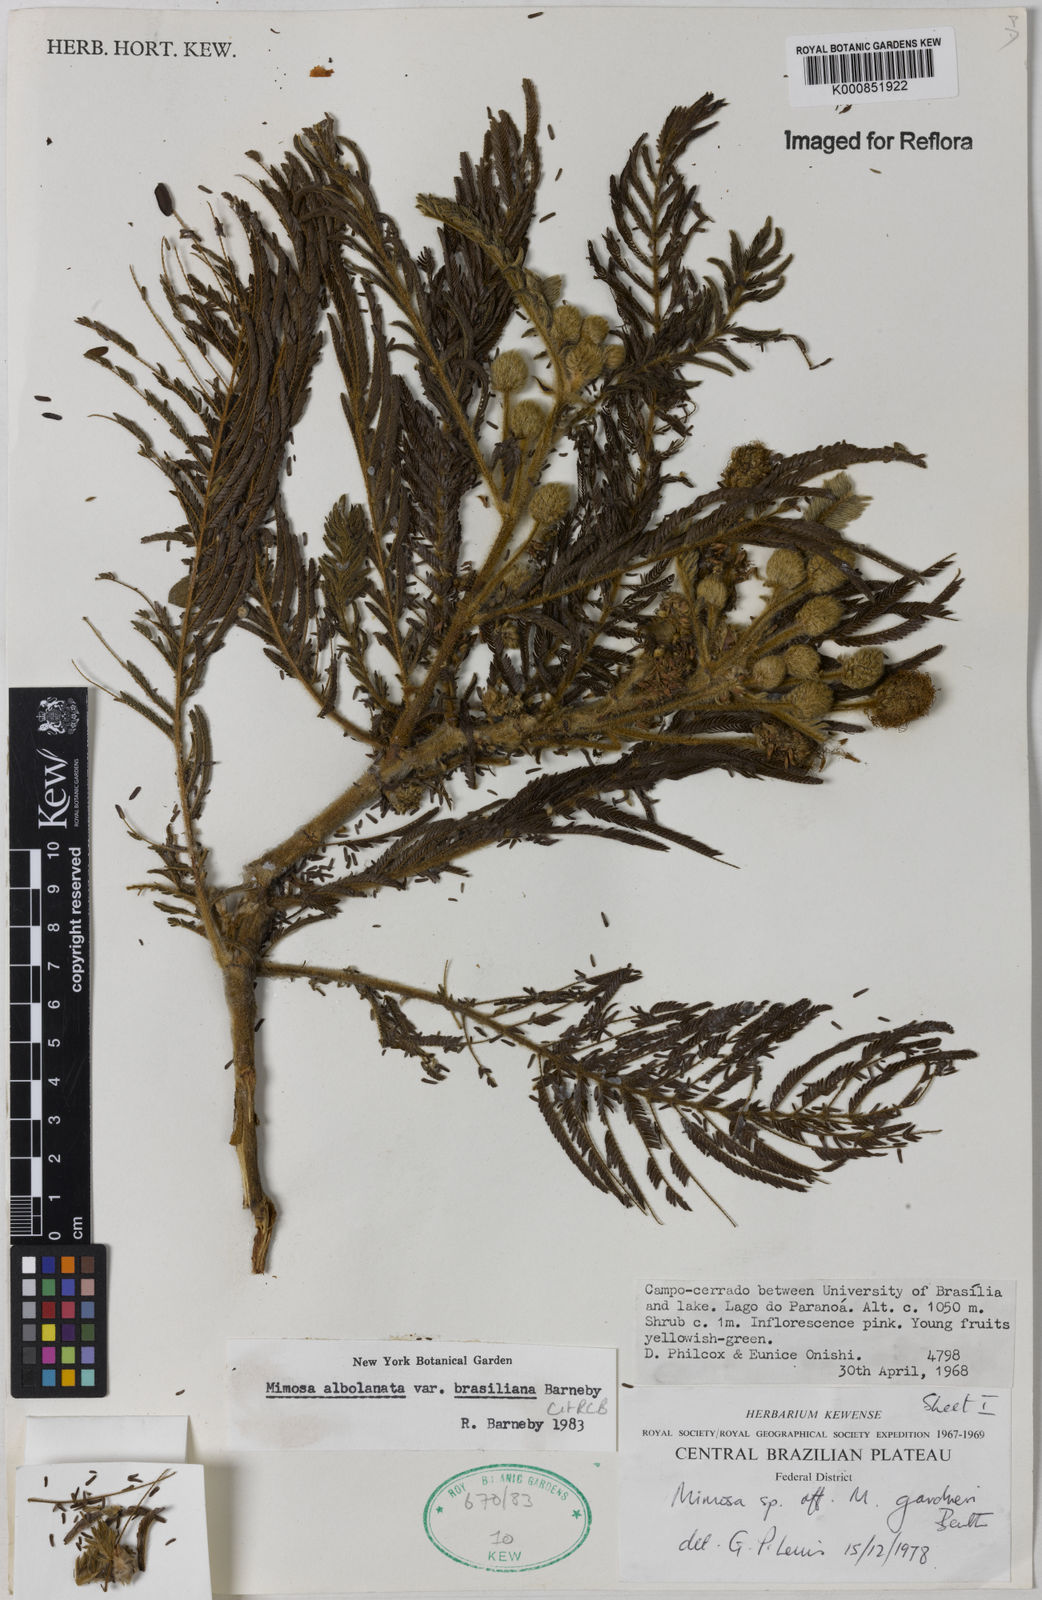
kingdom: Plantae
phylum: Tracheophyta
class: Magnoliopsida
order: Fabales
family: Fabaceae
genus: Mimosa
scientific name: Mimosa albolanata
